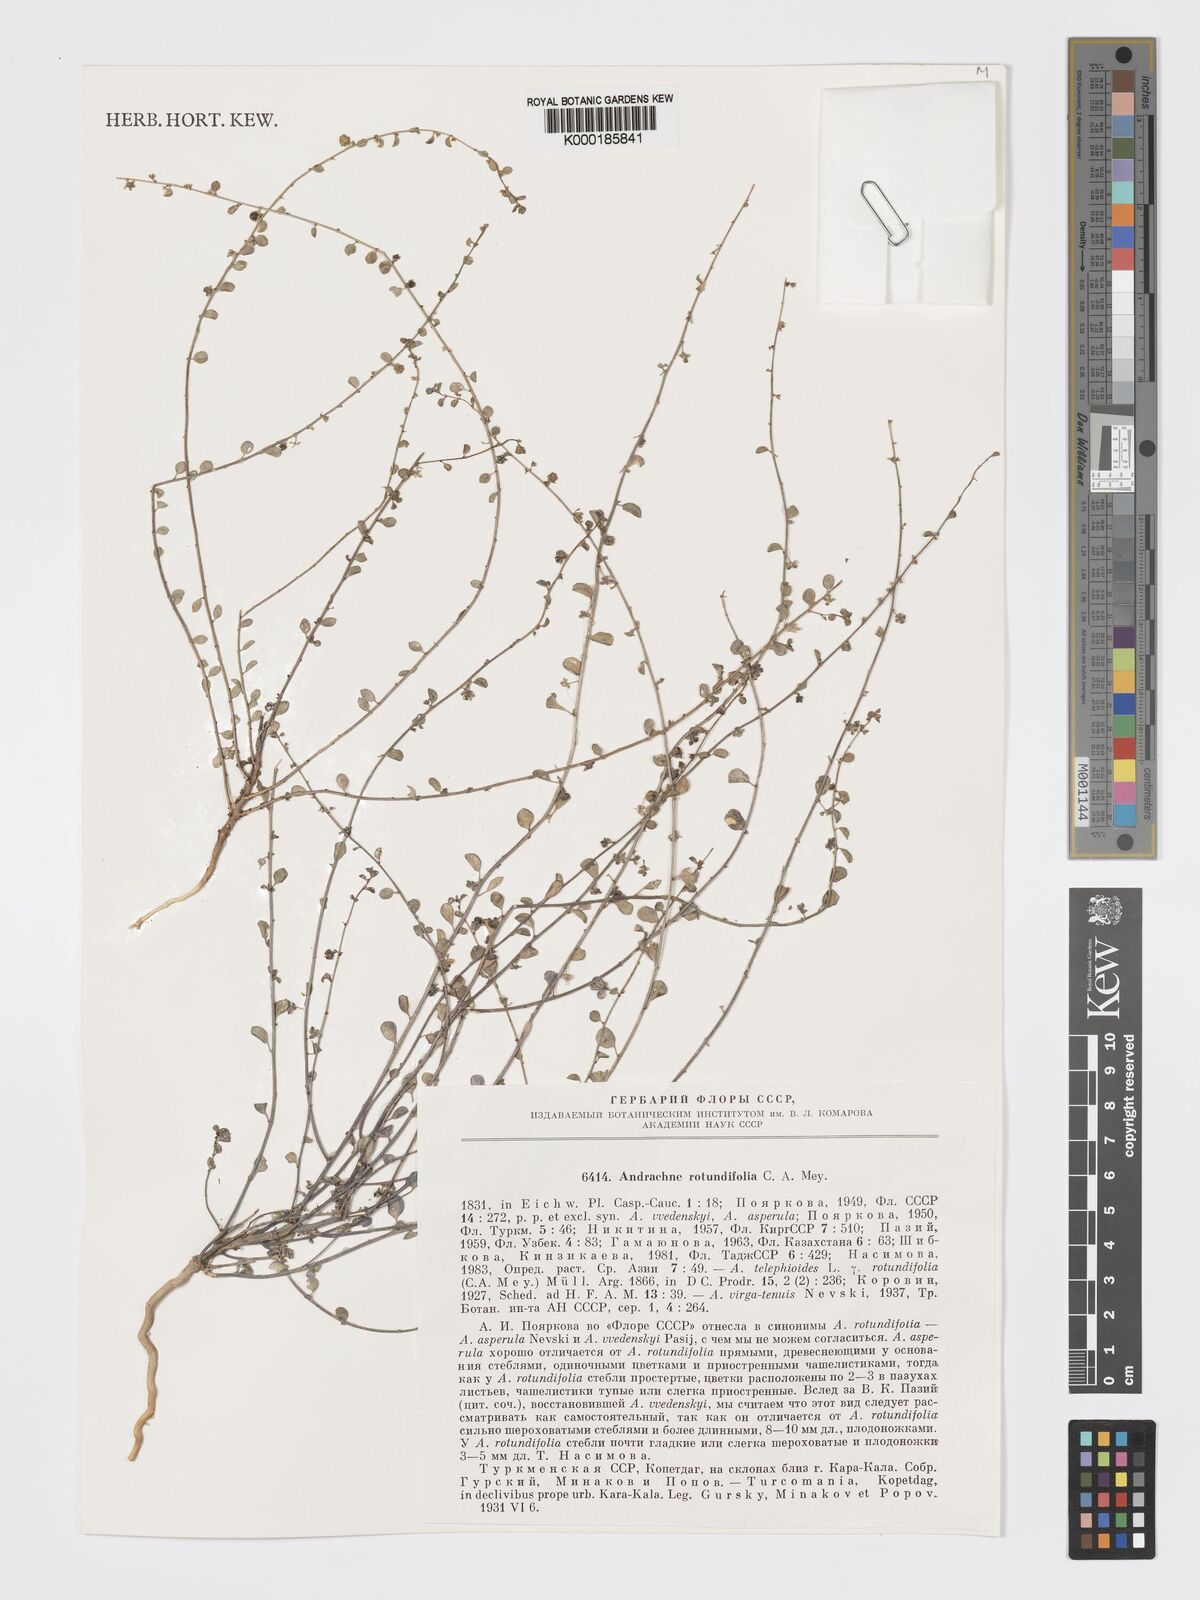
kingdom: Plantae
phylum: Tracheophyta
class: Magnoliopsida
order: Malpighiales
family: Phyllanthaceae
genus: Andrachne
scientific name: Andrachne telephioides
